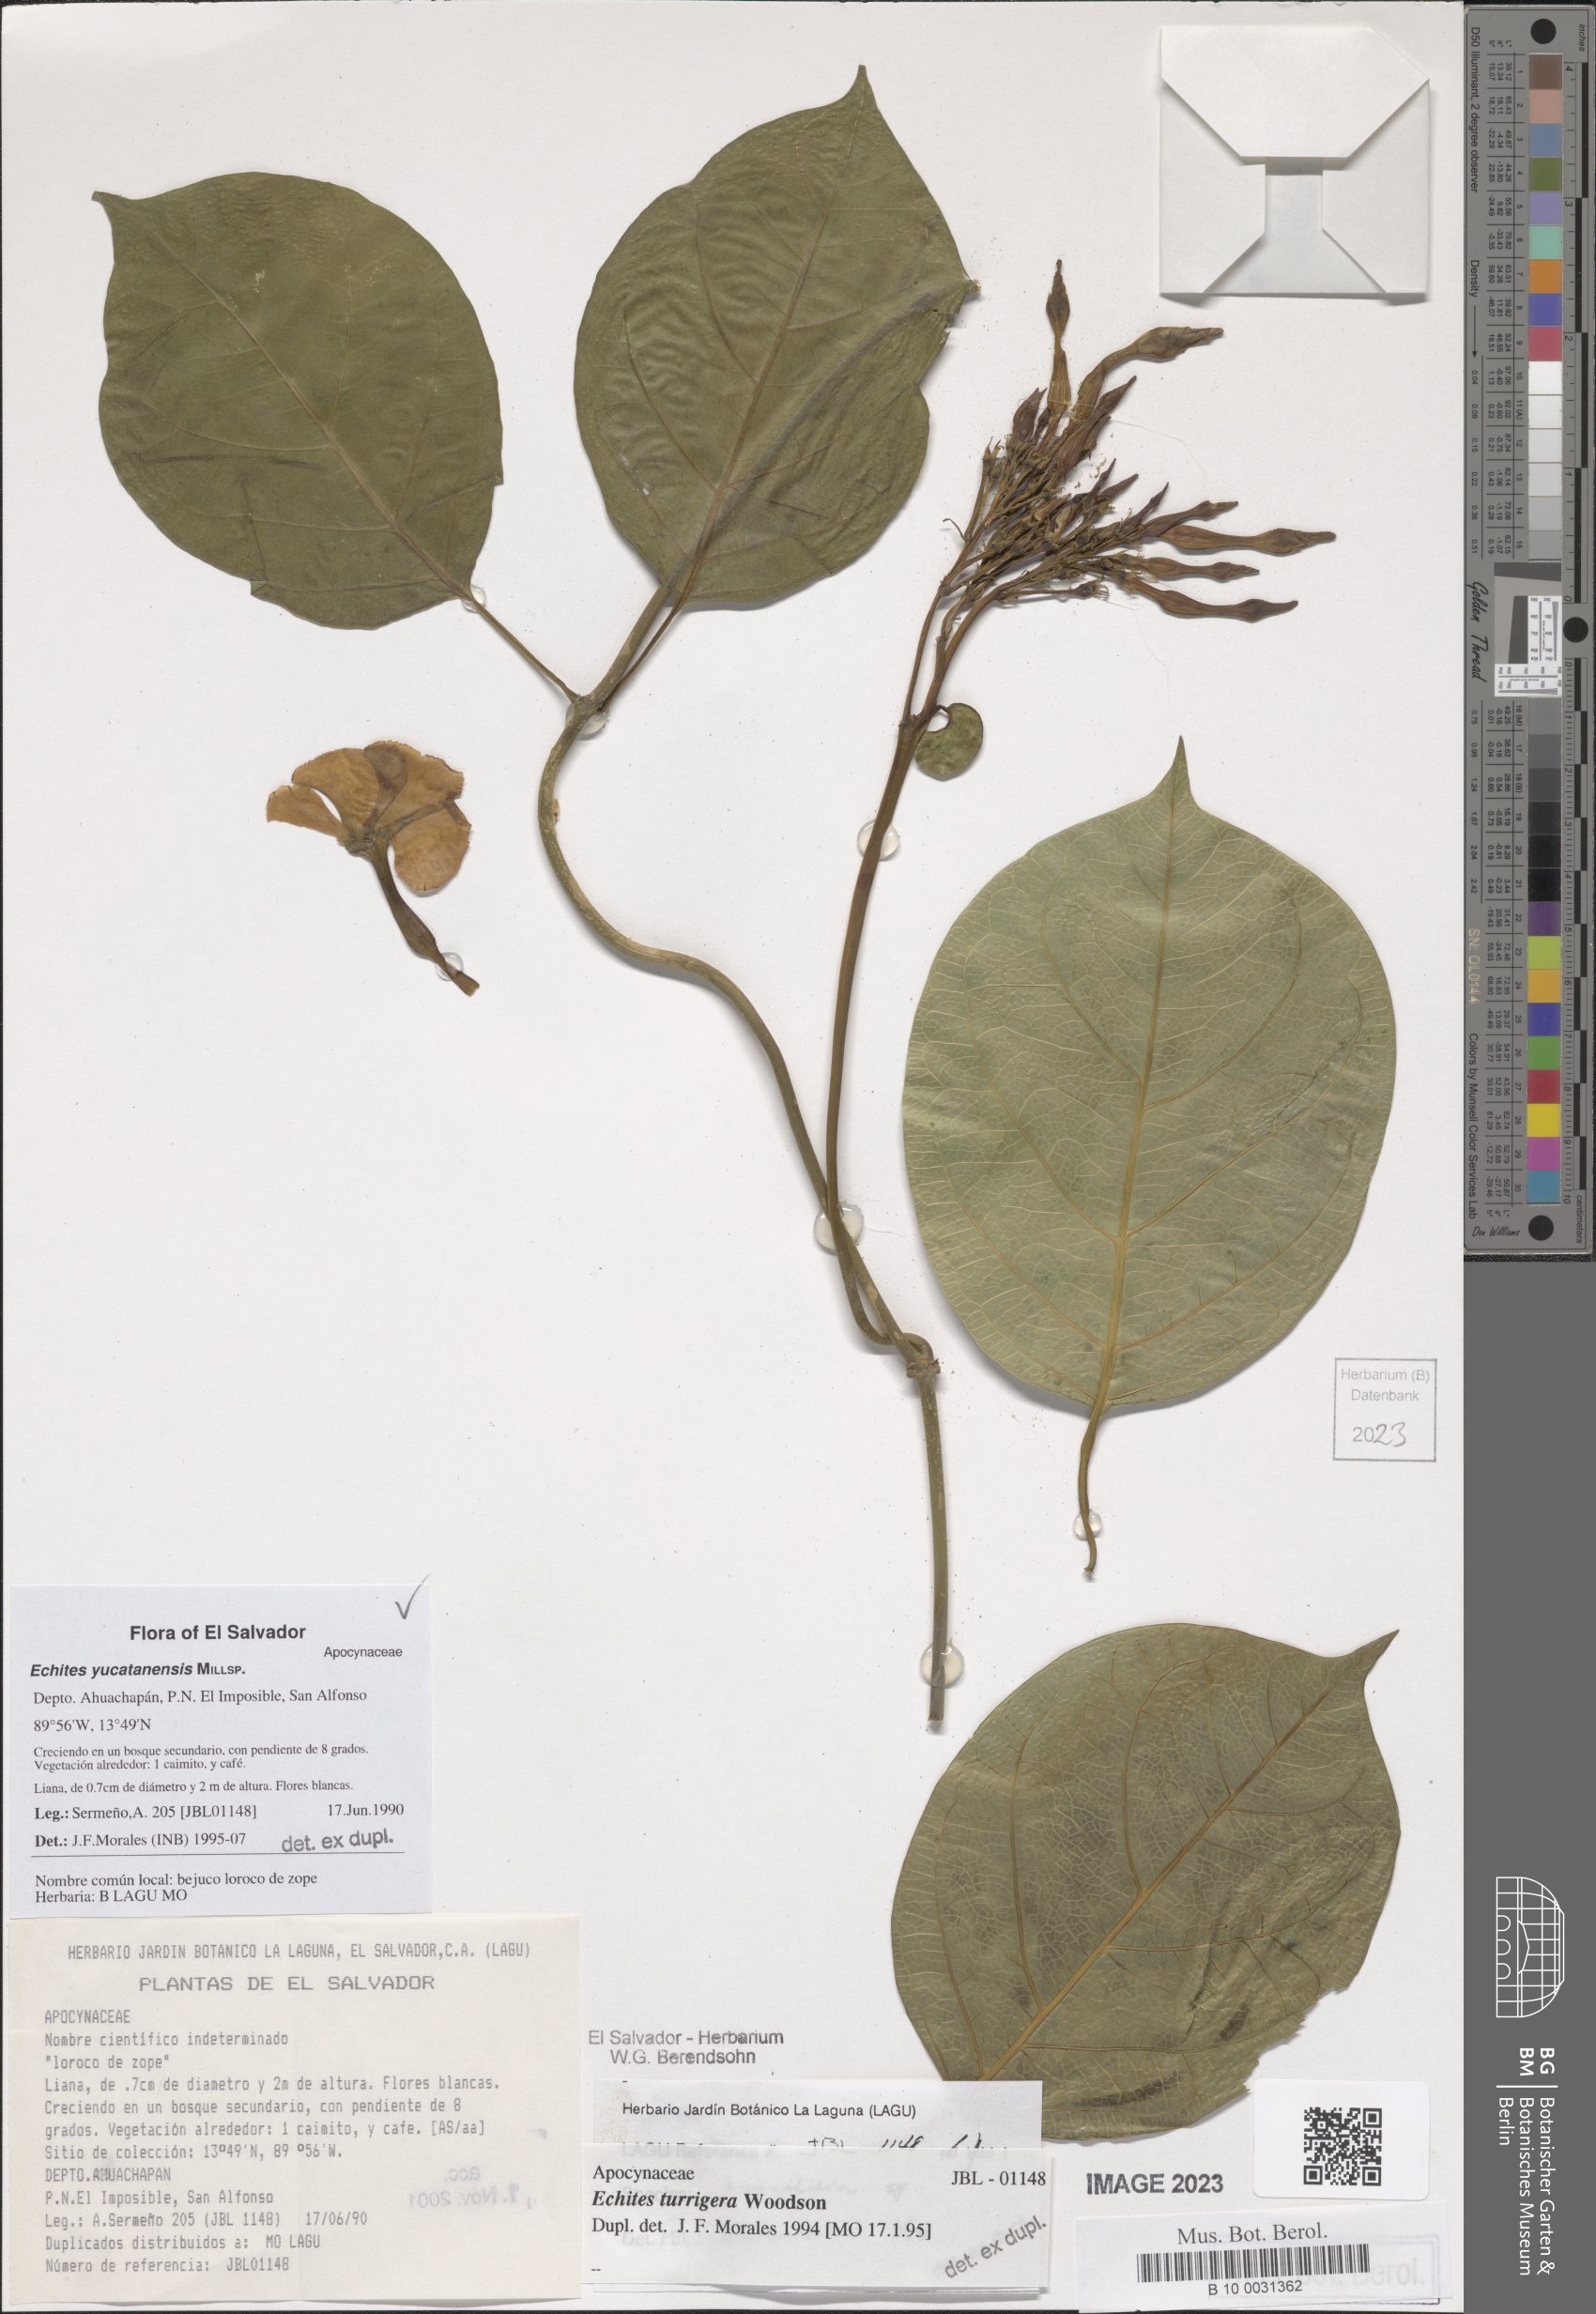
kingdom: Plantae
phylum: Tracheophyta
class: Magnoliopsida
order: Gentianales
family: Apocynaceae
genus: Echites
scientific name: Echites yucatanensis
